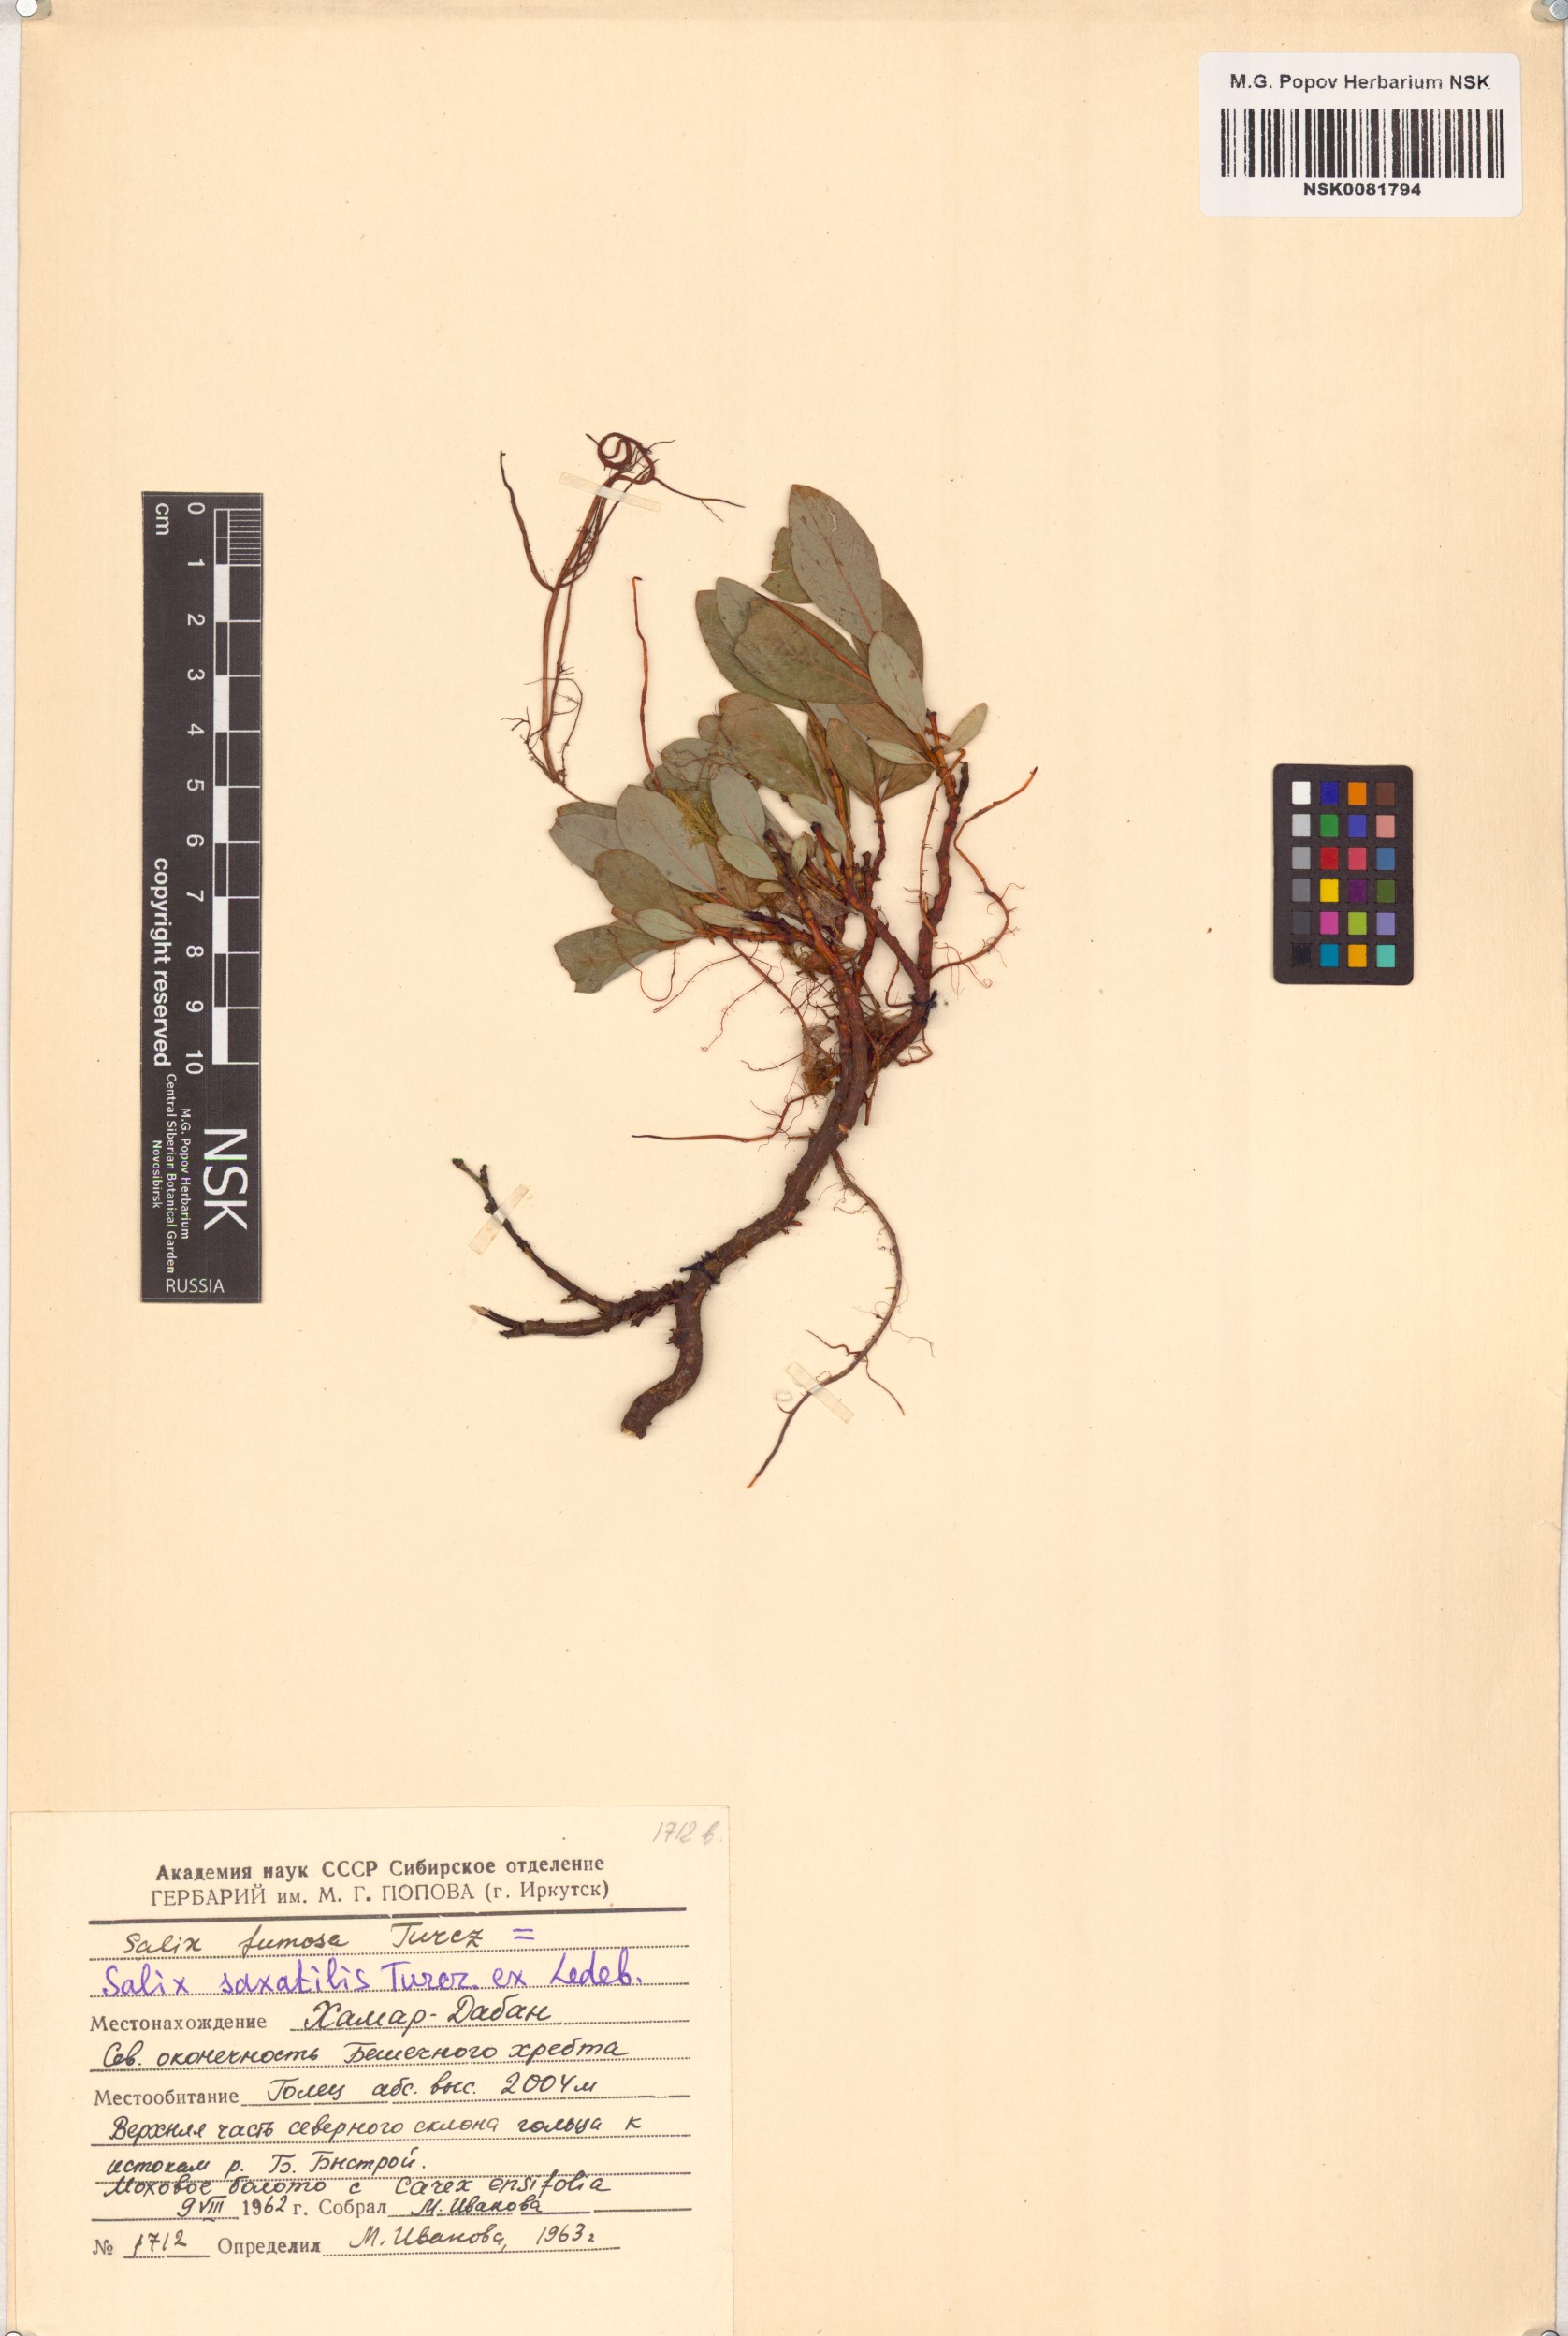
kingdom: Plantae
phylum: Tracheophyta
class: Magnoliopsida
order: Malpighiales
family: Salicaceae
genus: Salix
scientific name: Salix saxatilis
